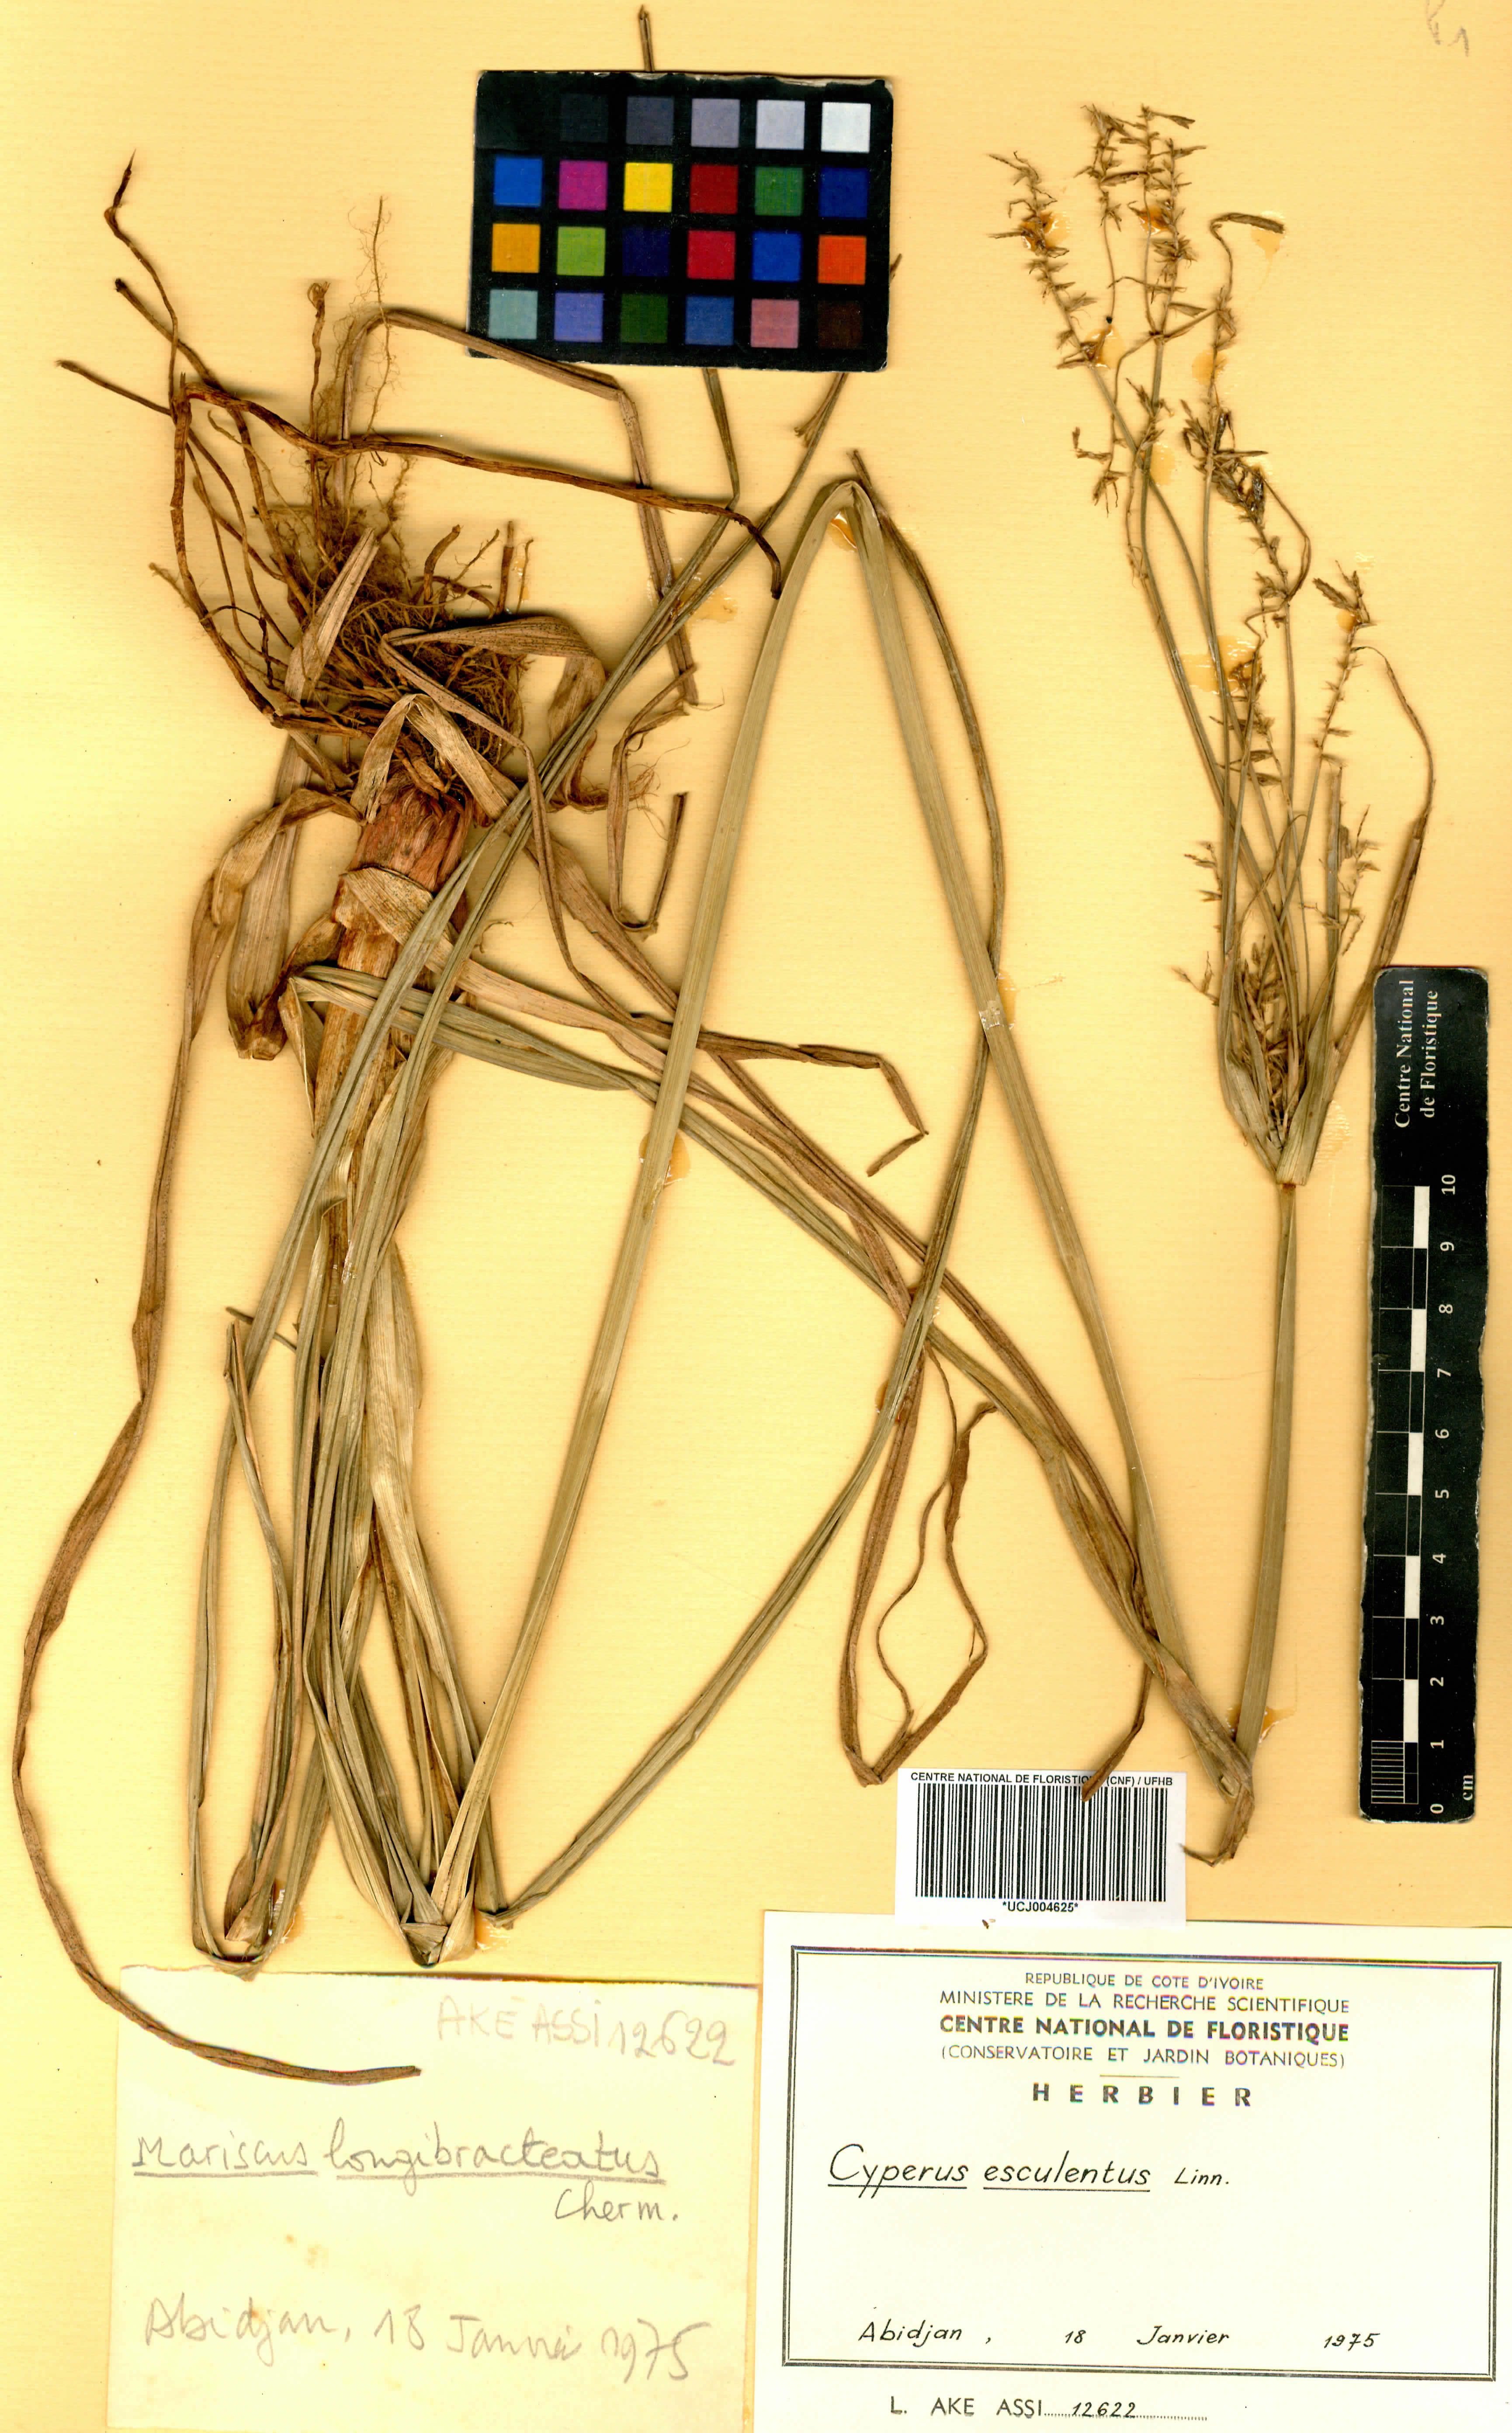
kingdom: Plantae
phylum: Tracheophyta
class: Liliopsida
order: Poales
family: Cyperaceae
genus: Cyperus
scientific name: Cyperus esculentus
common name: Yellow nutsedge
